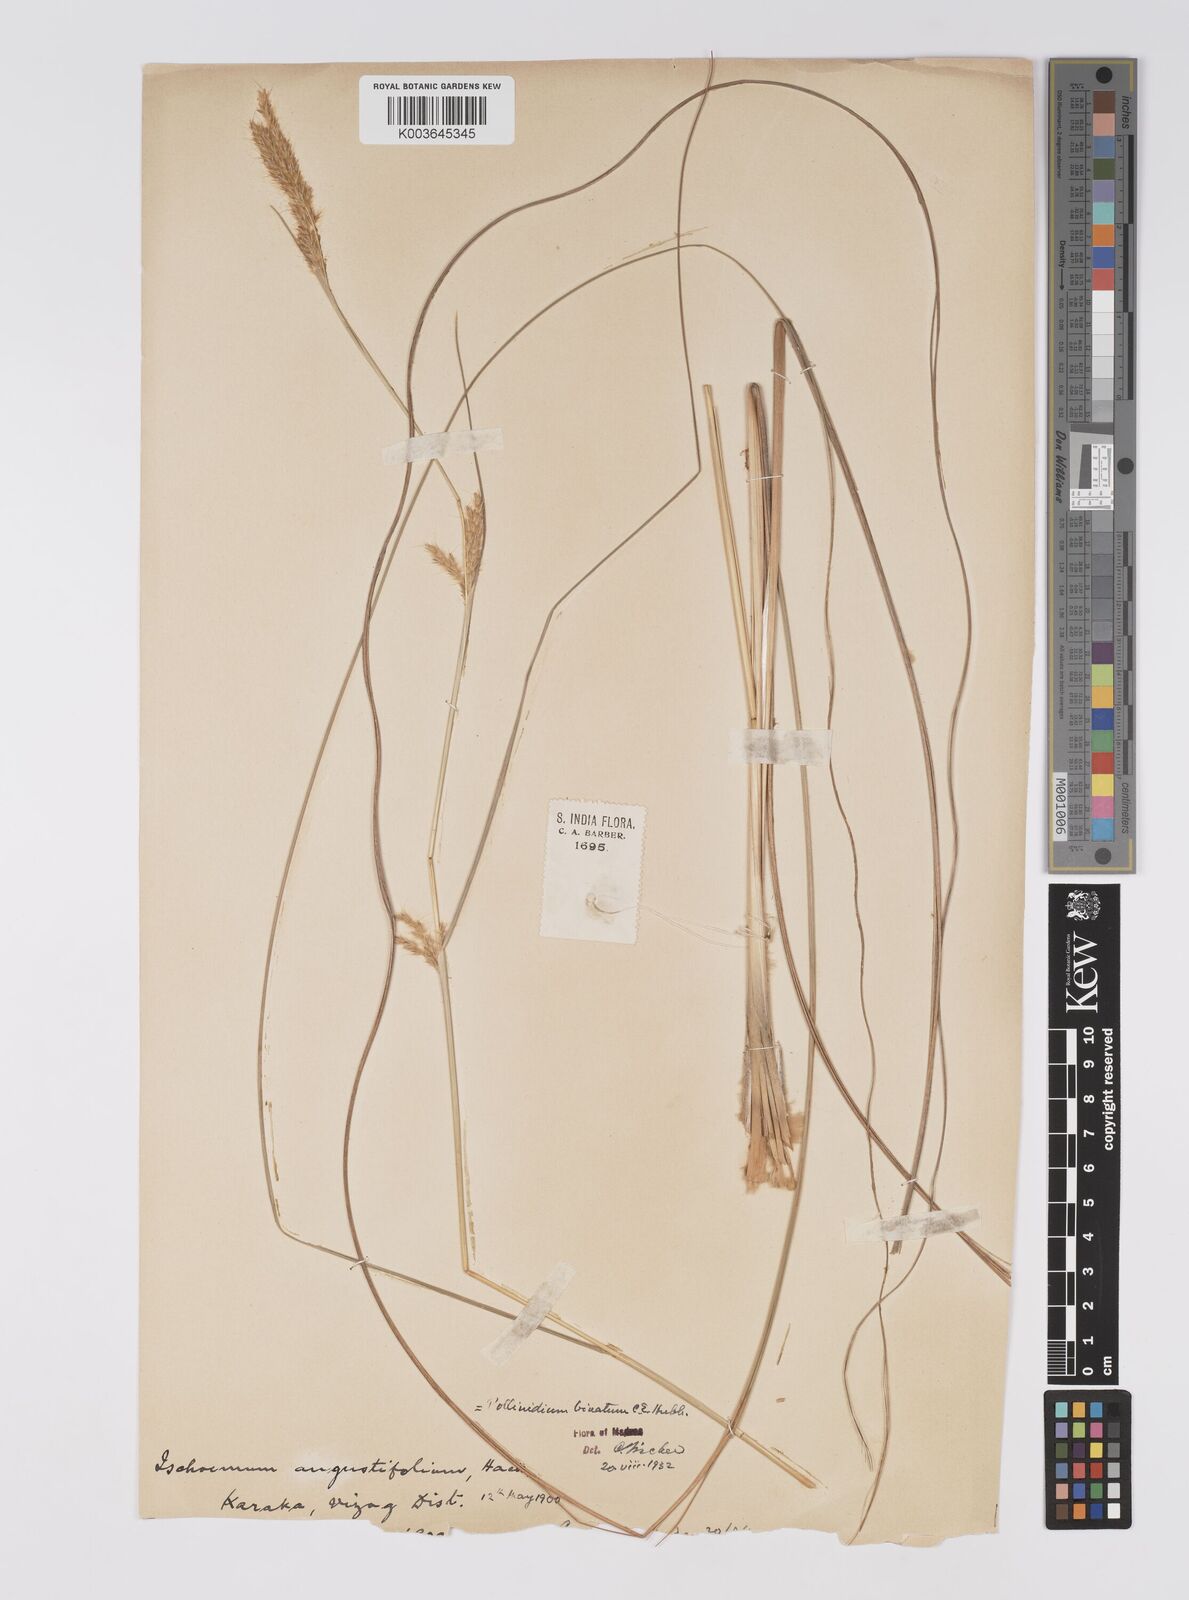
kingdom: Plantae
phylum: Tracheophyta
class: Liliopsida
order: Poales
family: Poaceae
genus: Eulaliopsis
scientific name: Eulaliopsis binata
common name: Baib grass
